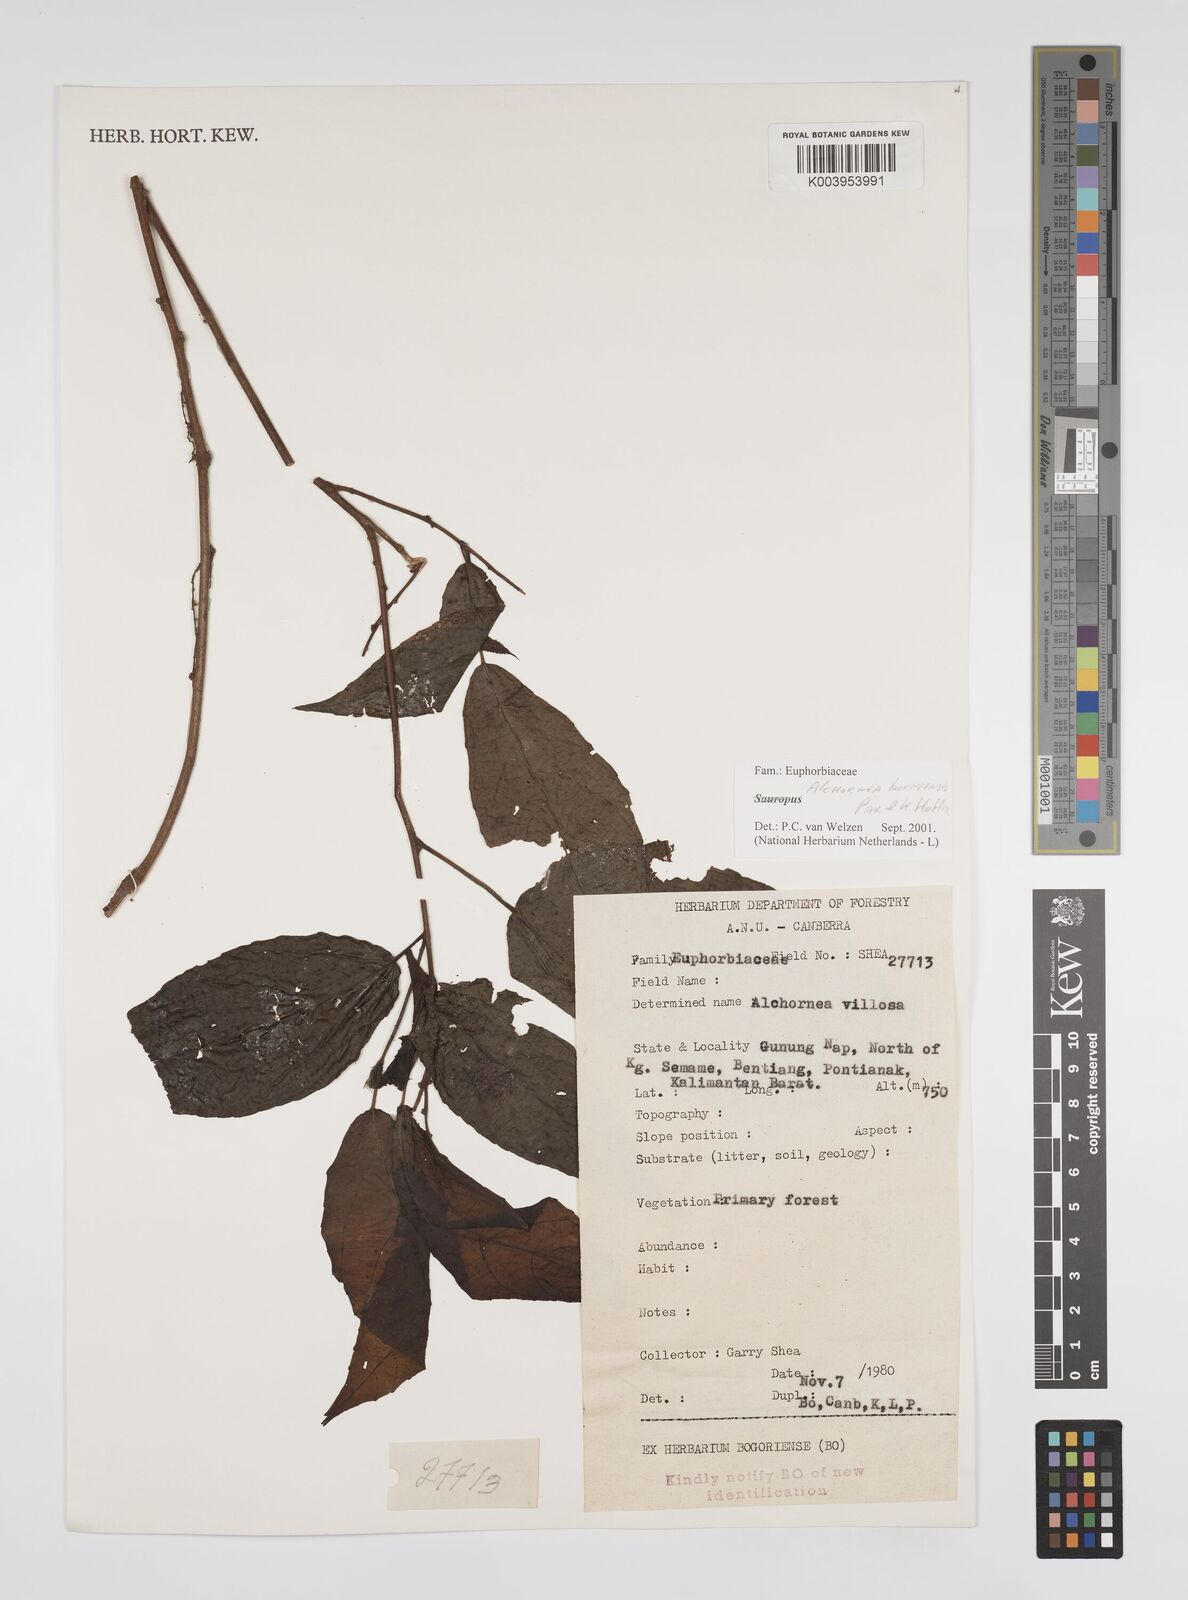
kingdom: Plantae
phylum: Tracheophyta
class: Magnoliopsida
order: Malpighiales
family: Euphorbiaceae
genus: Alchornea
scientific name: Alchornea parviflora
